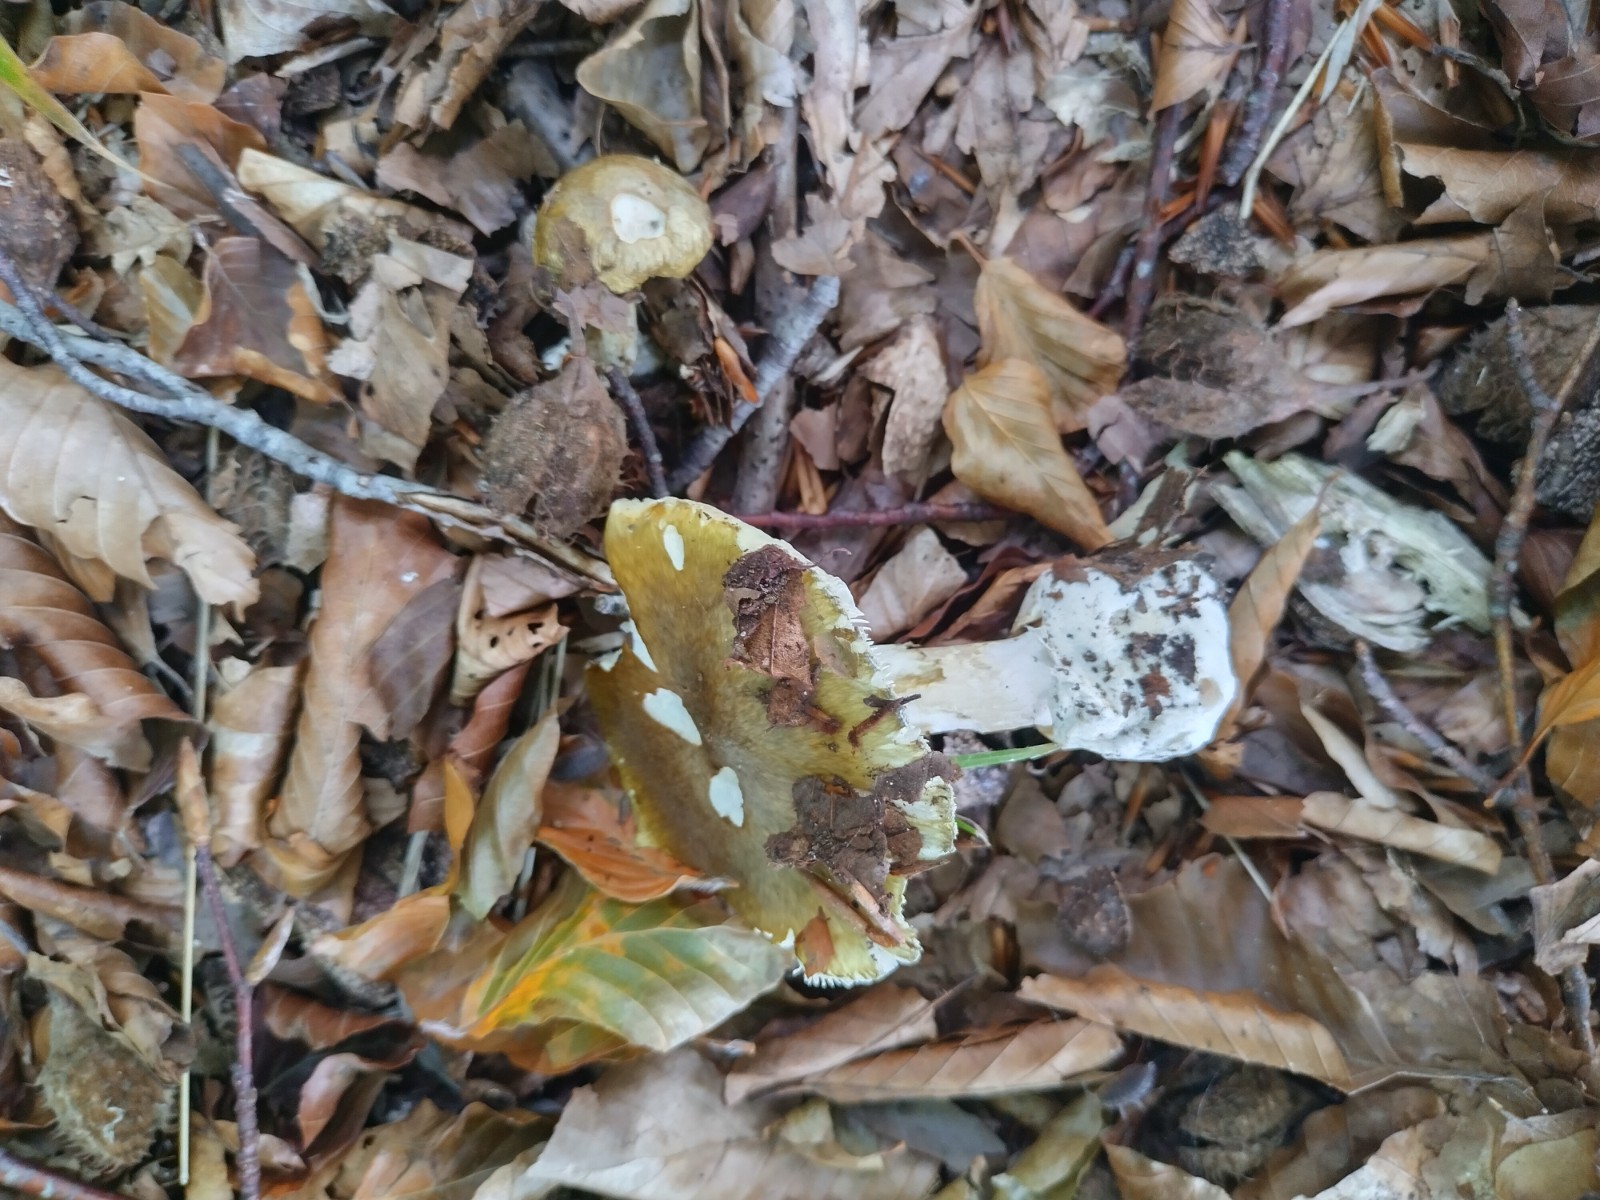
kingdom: Fungi
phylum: Basidiomycota
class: Agaricomycetes
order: Agaricales
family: Amanitaceae
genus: Amanita
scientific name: Amanita phalloides
